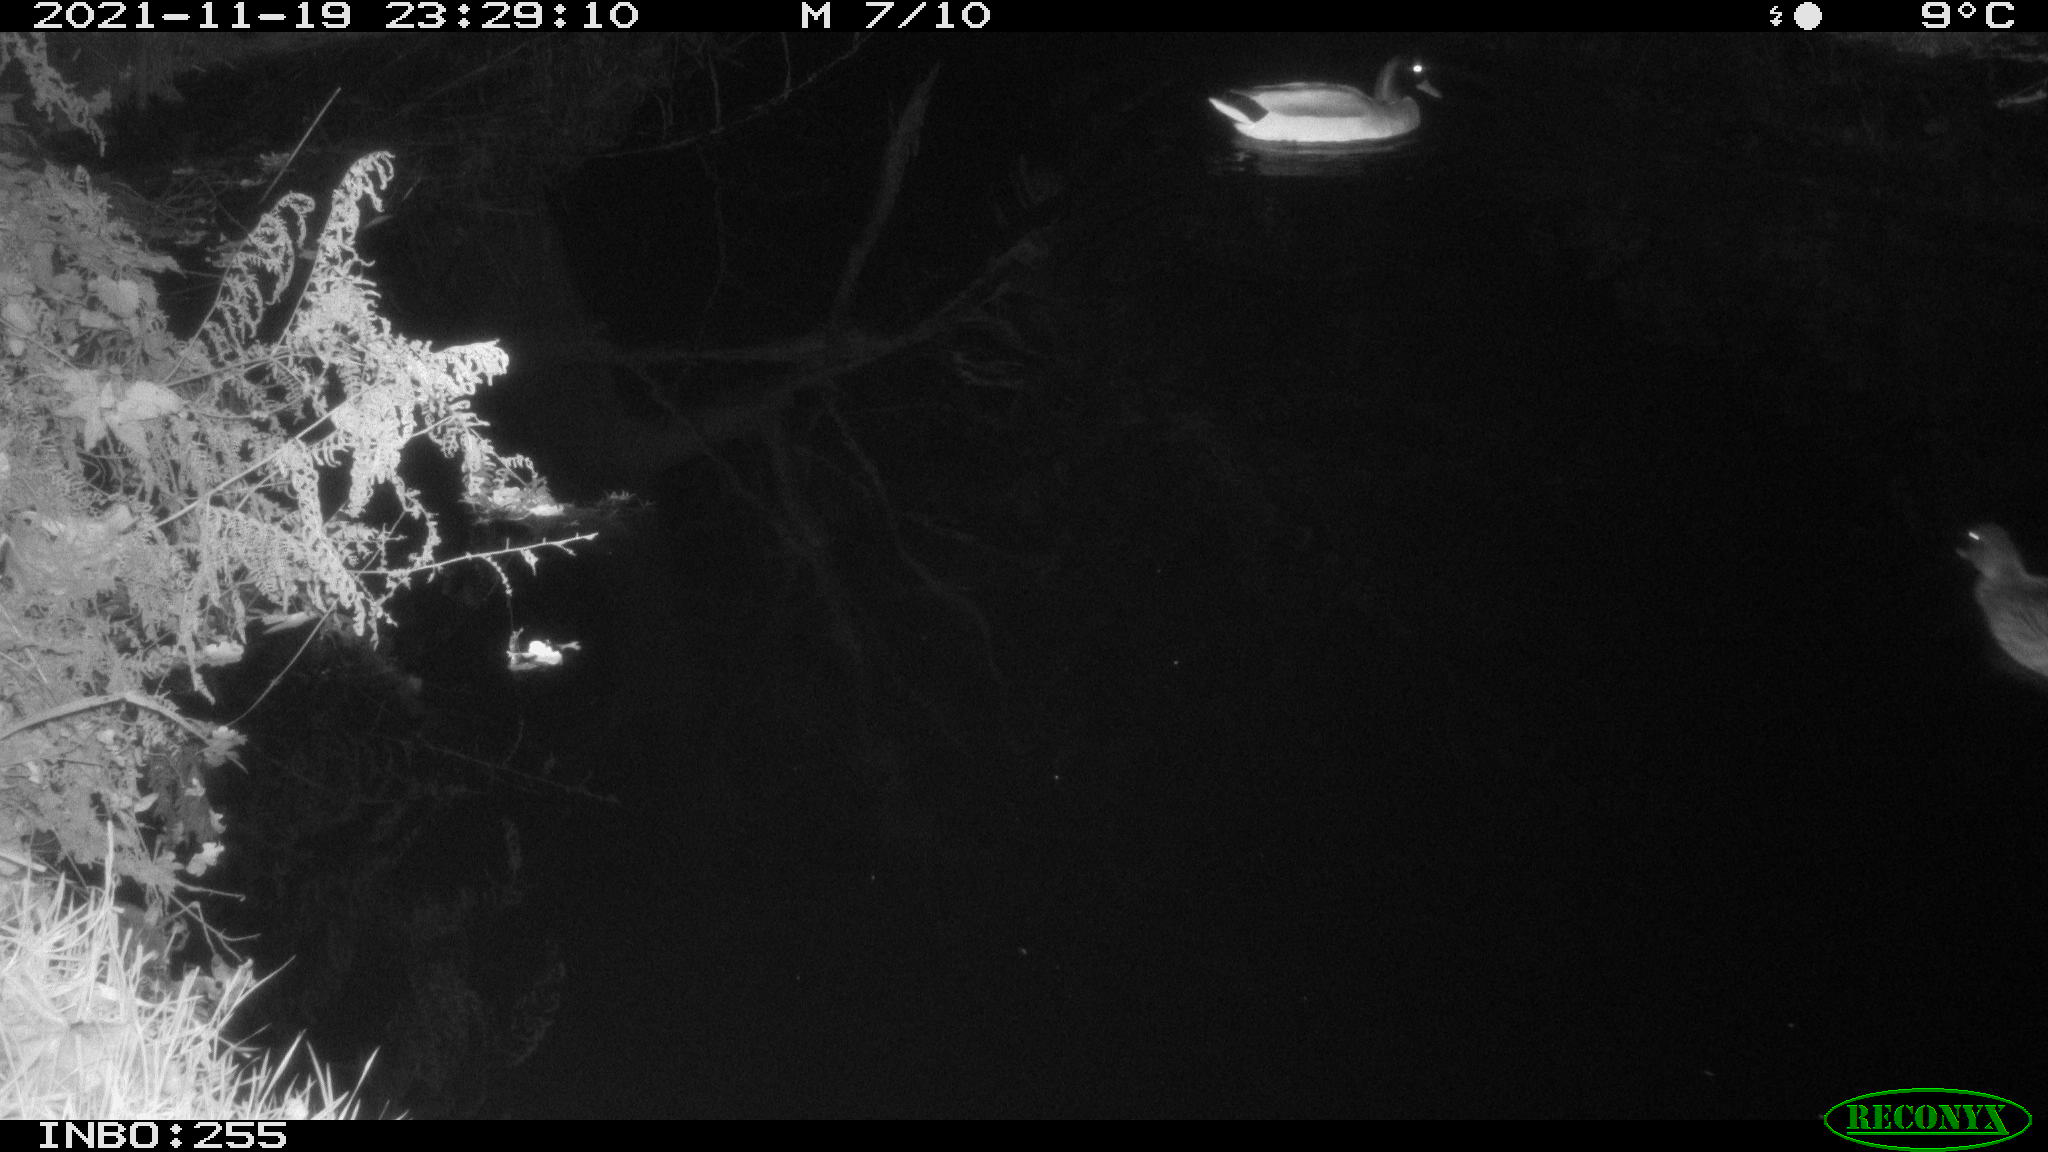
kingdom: Animalia
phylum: Chordata
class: Aves
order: Anseriformes
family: Anatidae
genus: Anas
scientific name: Anas platyrhynchos
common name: Mallard
